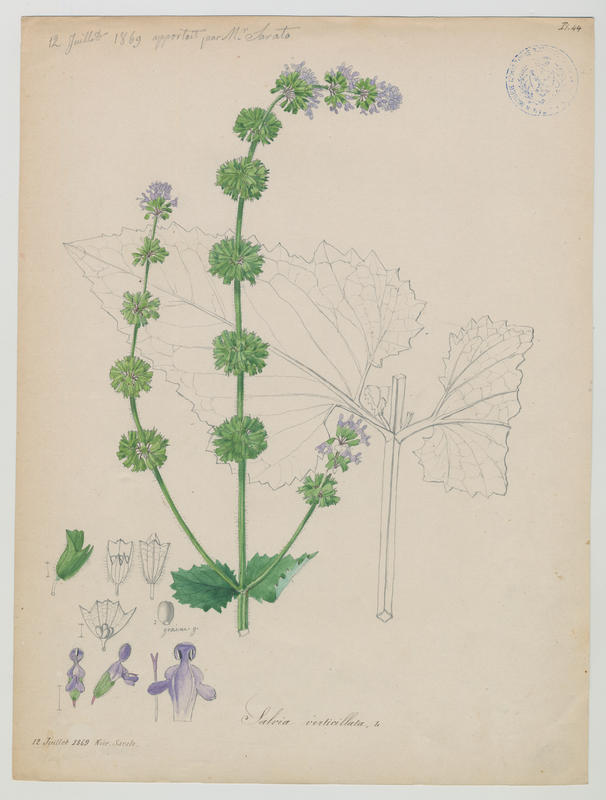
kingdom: Plantae
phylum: Tracheophyta
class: Magnoliopsida
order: Lamiales
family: Lamiaceae
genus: Salvia
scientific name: Salvia verticillata
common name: Whorled clary
